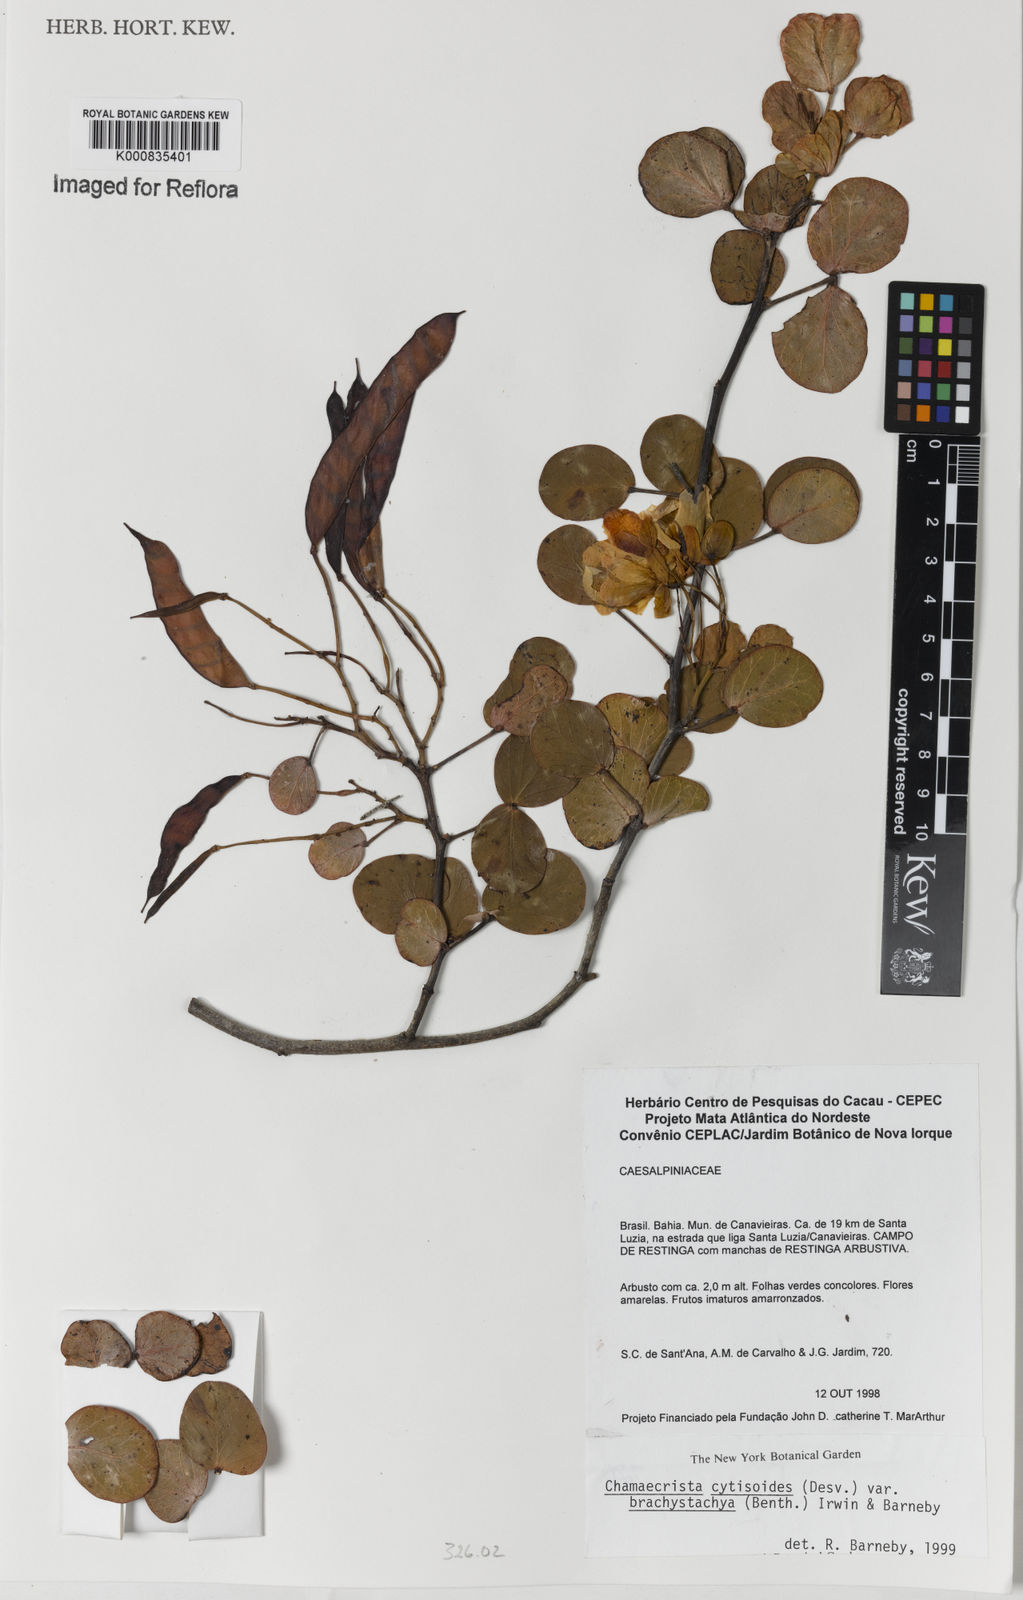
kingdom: Plantae
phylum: Tracheophyta
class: Magnoliopsida
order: Fabales
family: Fabaceae
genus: Chamaecrista
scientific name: Chamaecrista cytisoides
